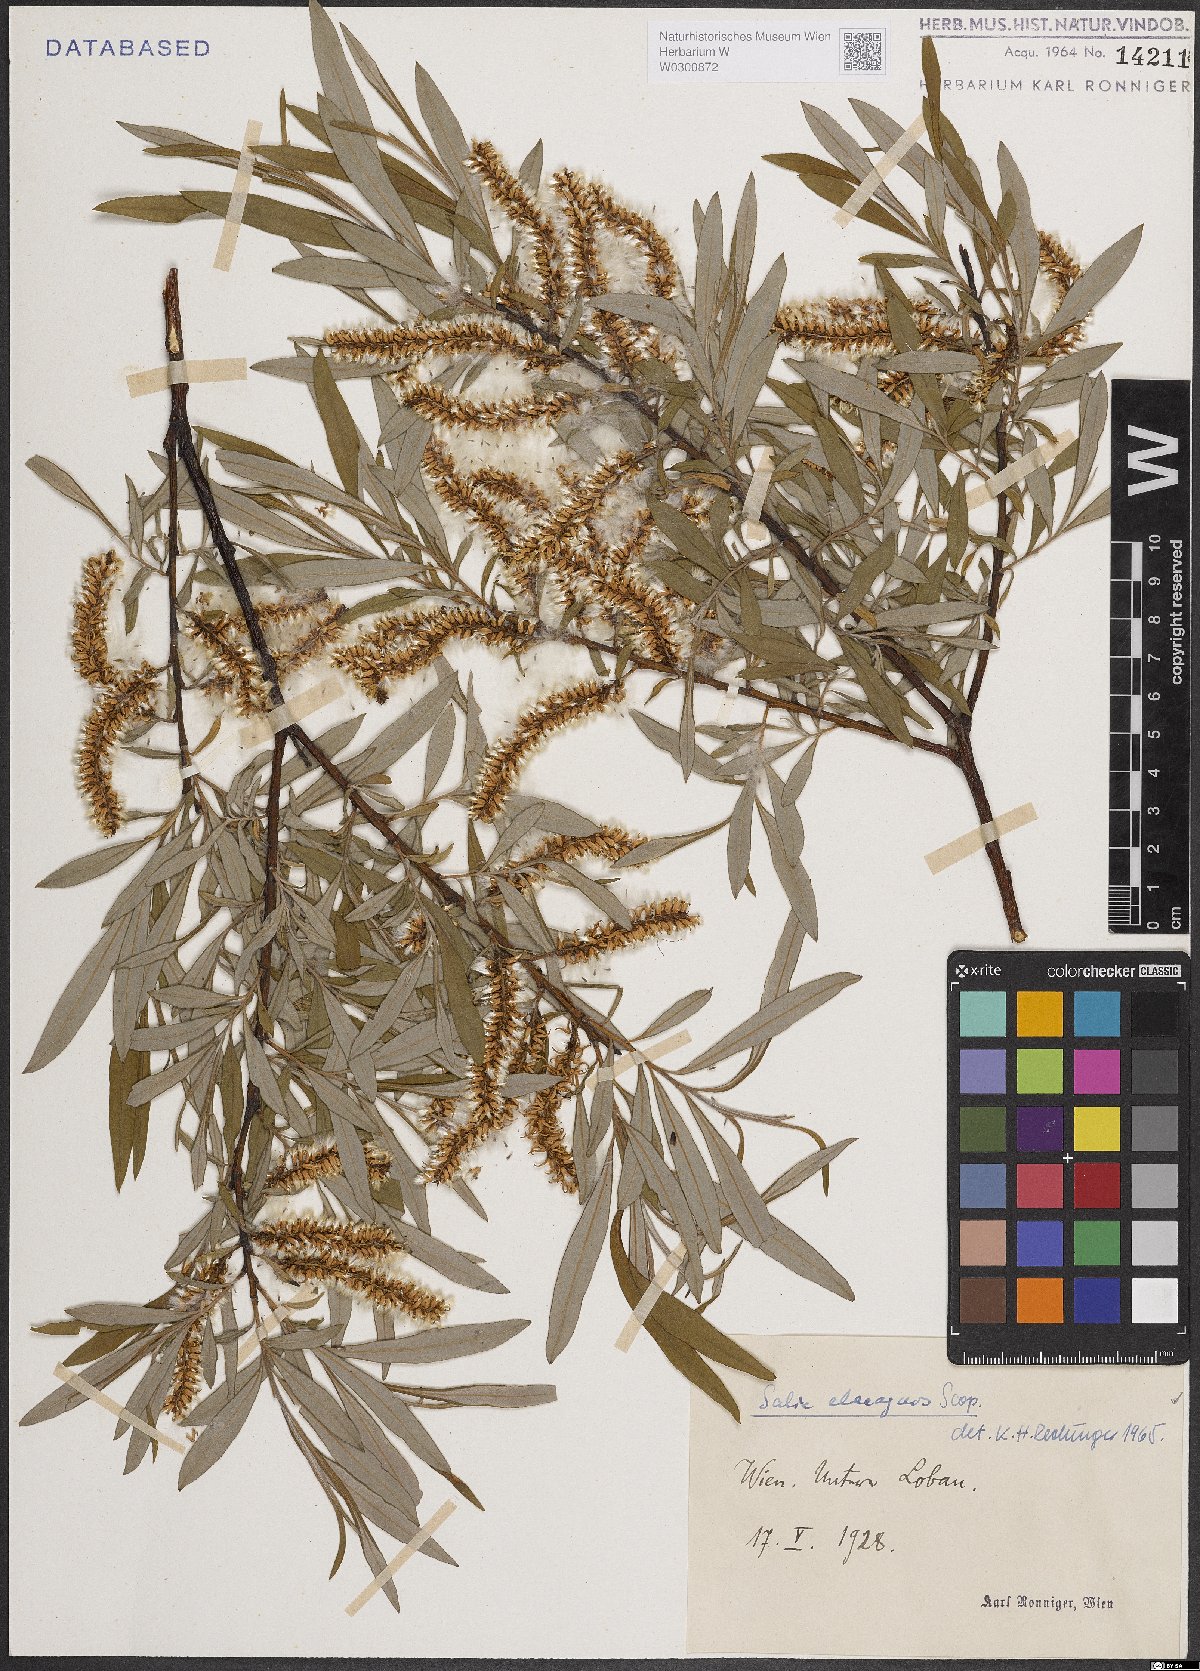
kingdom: Plantae
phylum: Tracheophyta
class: Magnoliopsida
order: Malpighiales
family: Salicaceae
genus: Salix
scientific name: Salix eleagnos
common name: Elaeagnus willow
